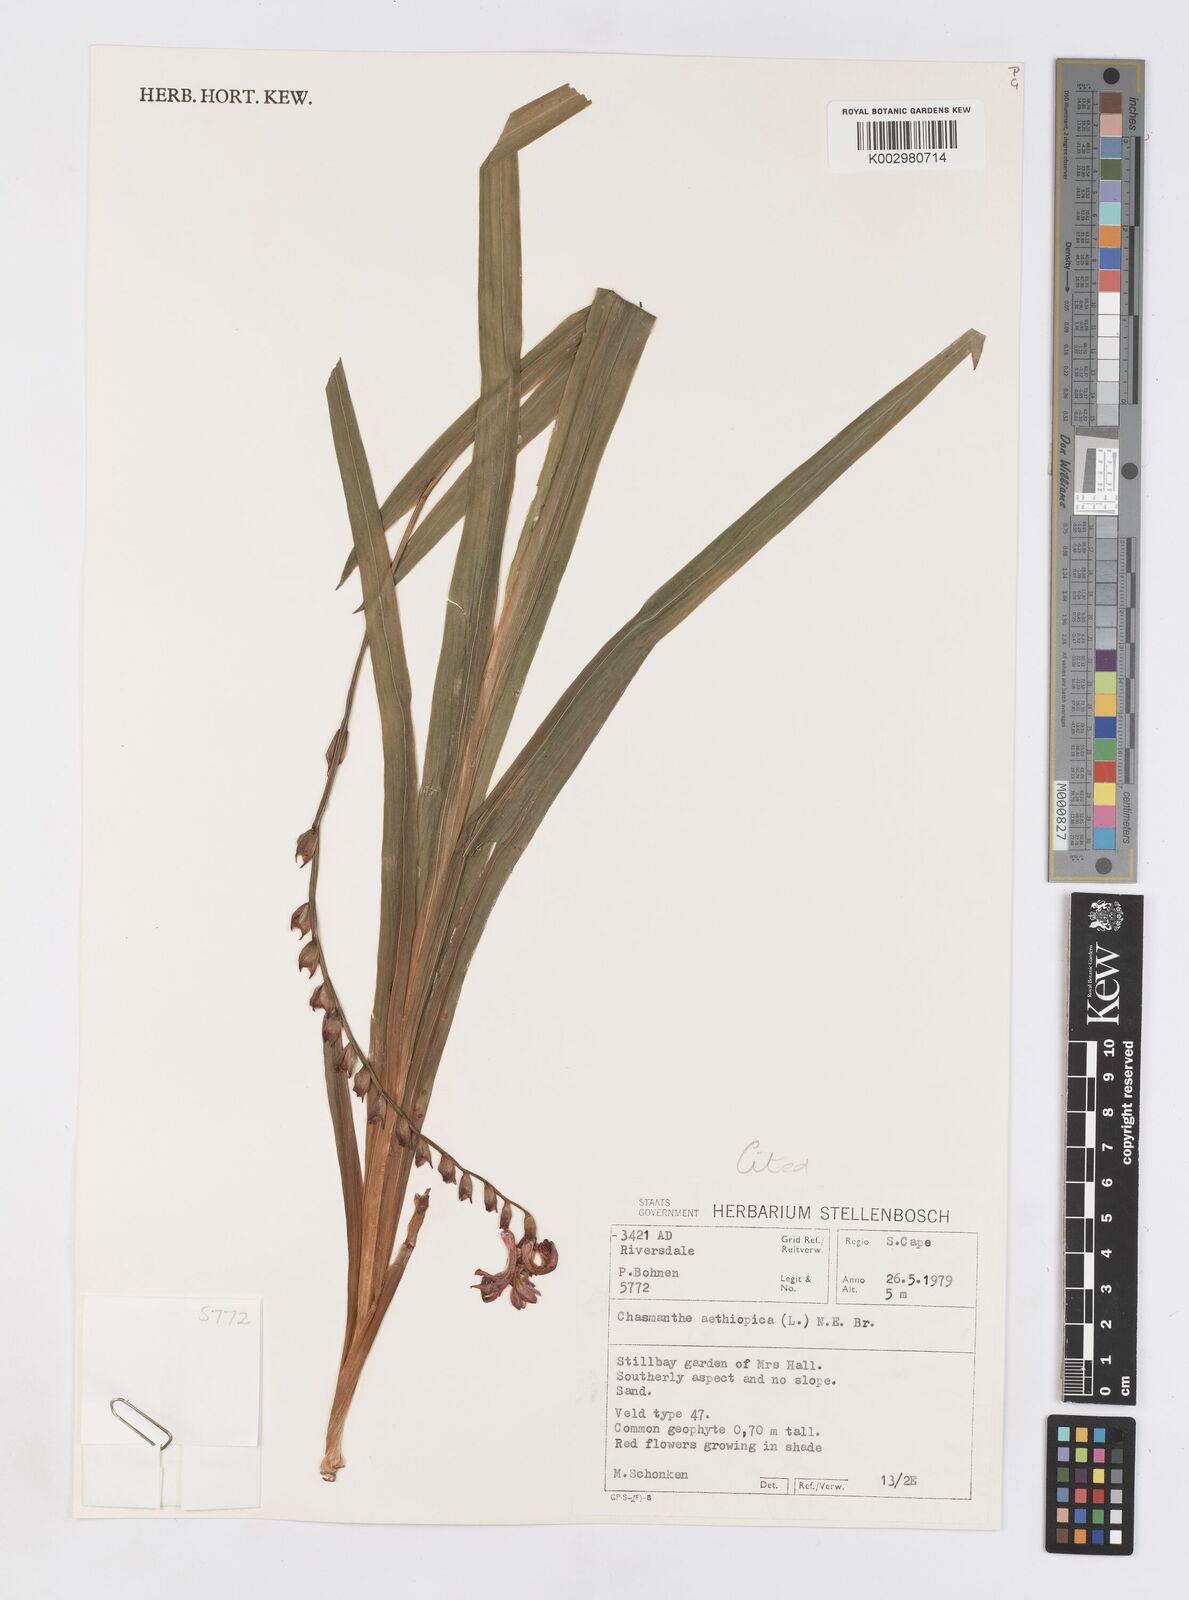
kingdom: Plantae
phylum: Tracheophyta
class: Liliopsida
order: Asparagales
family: Iridaceae
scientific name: Iridaceae
